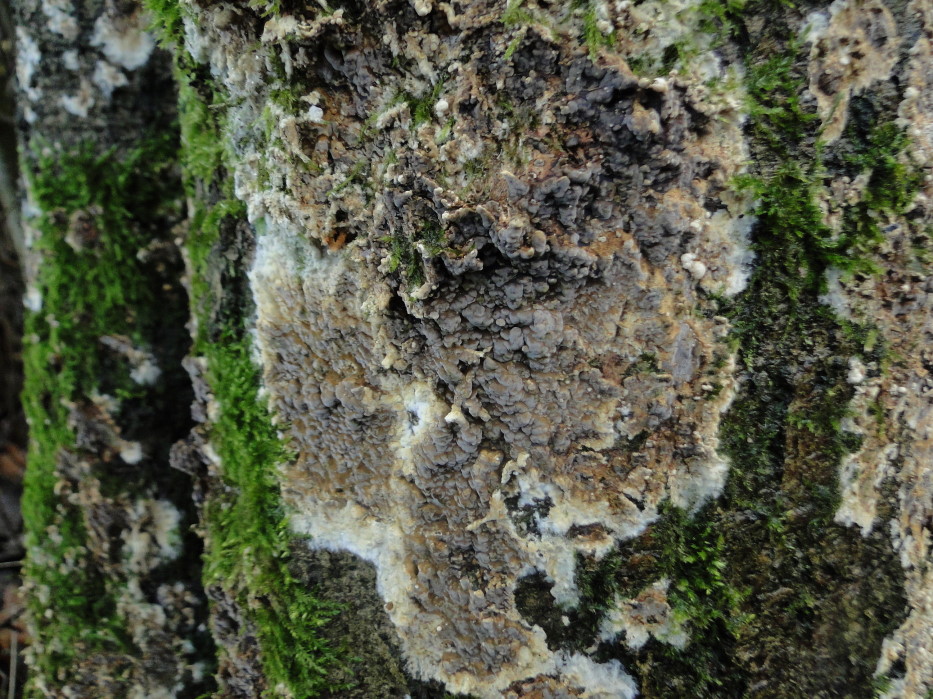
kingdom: Fungi
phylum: Basidiomycota
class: Agaricomycetes
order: Boletales
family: Coniophoraceae
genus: Coniophora
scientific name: Coniophora puteana
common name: gul tømmersvamp
